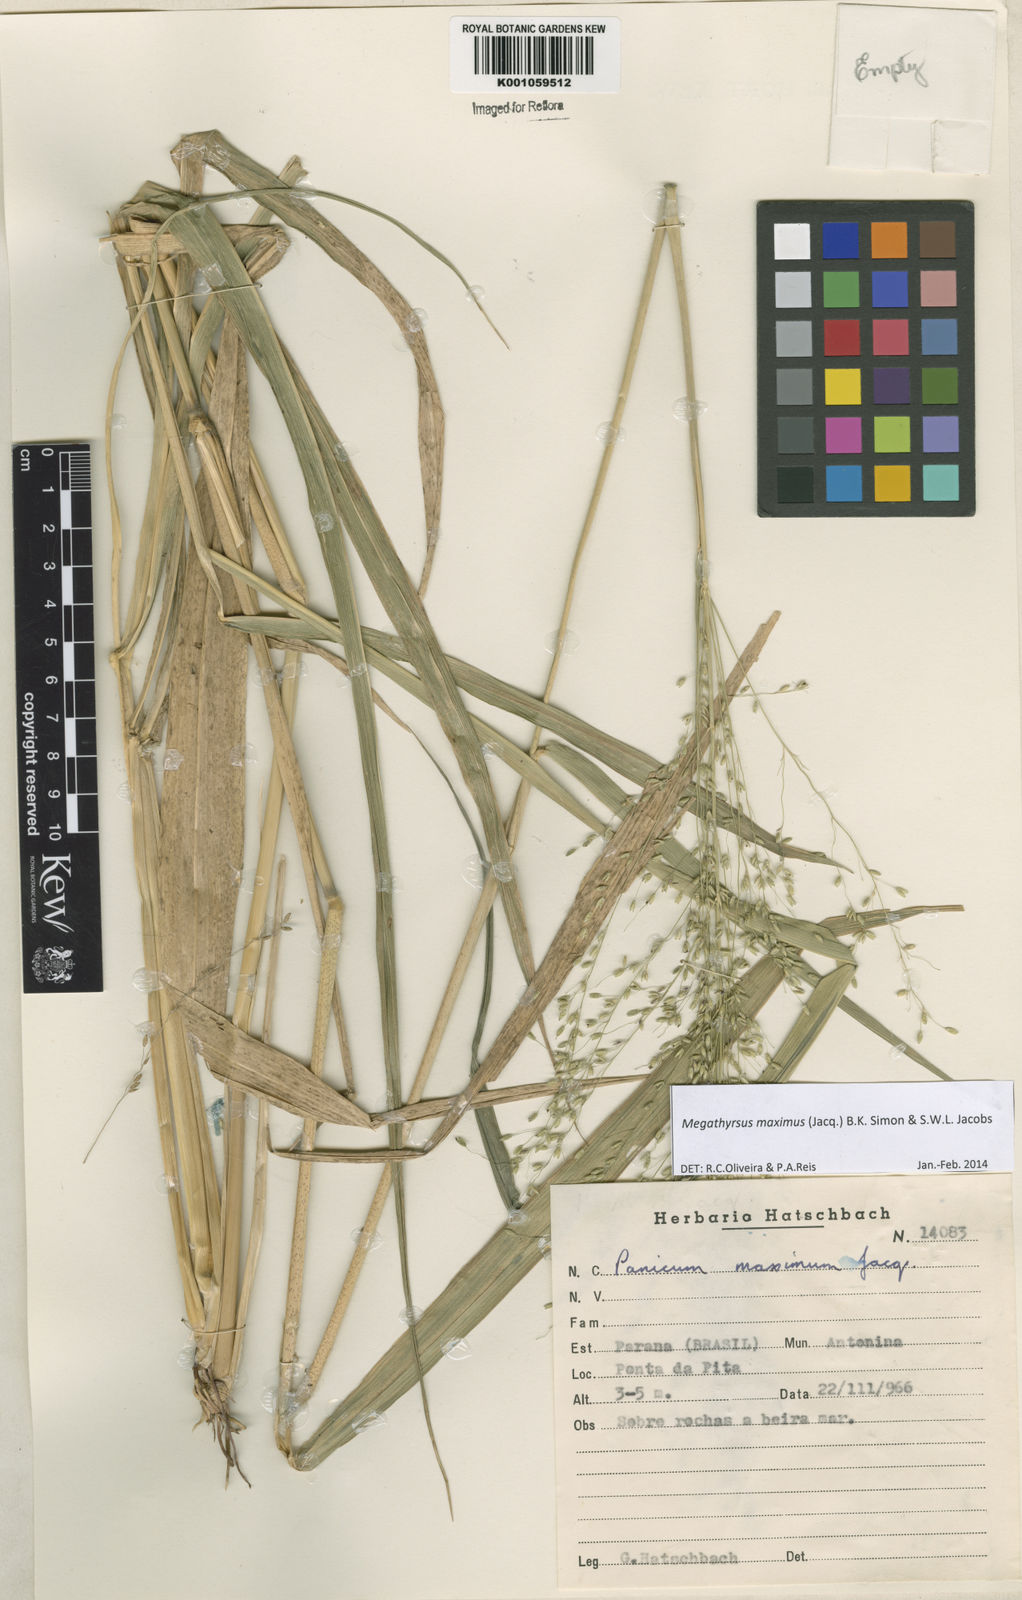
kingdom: Plantae
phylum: Tracheophyta
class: Liliopsida
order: Poales
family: Poaceae
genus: Megathyrsus
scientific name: Megathyrsus maximus
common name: Guineagrass
